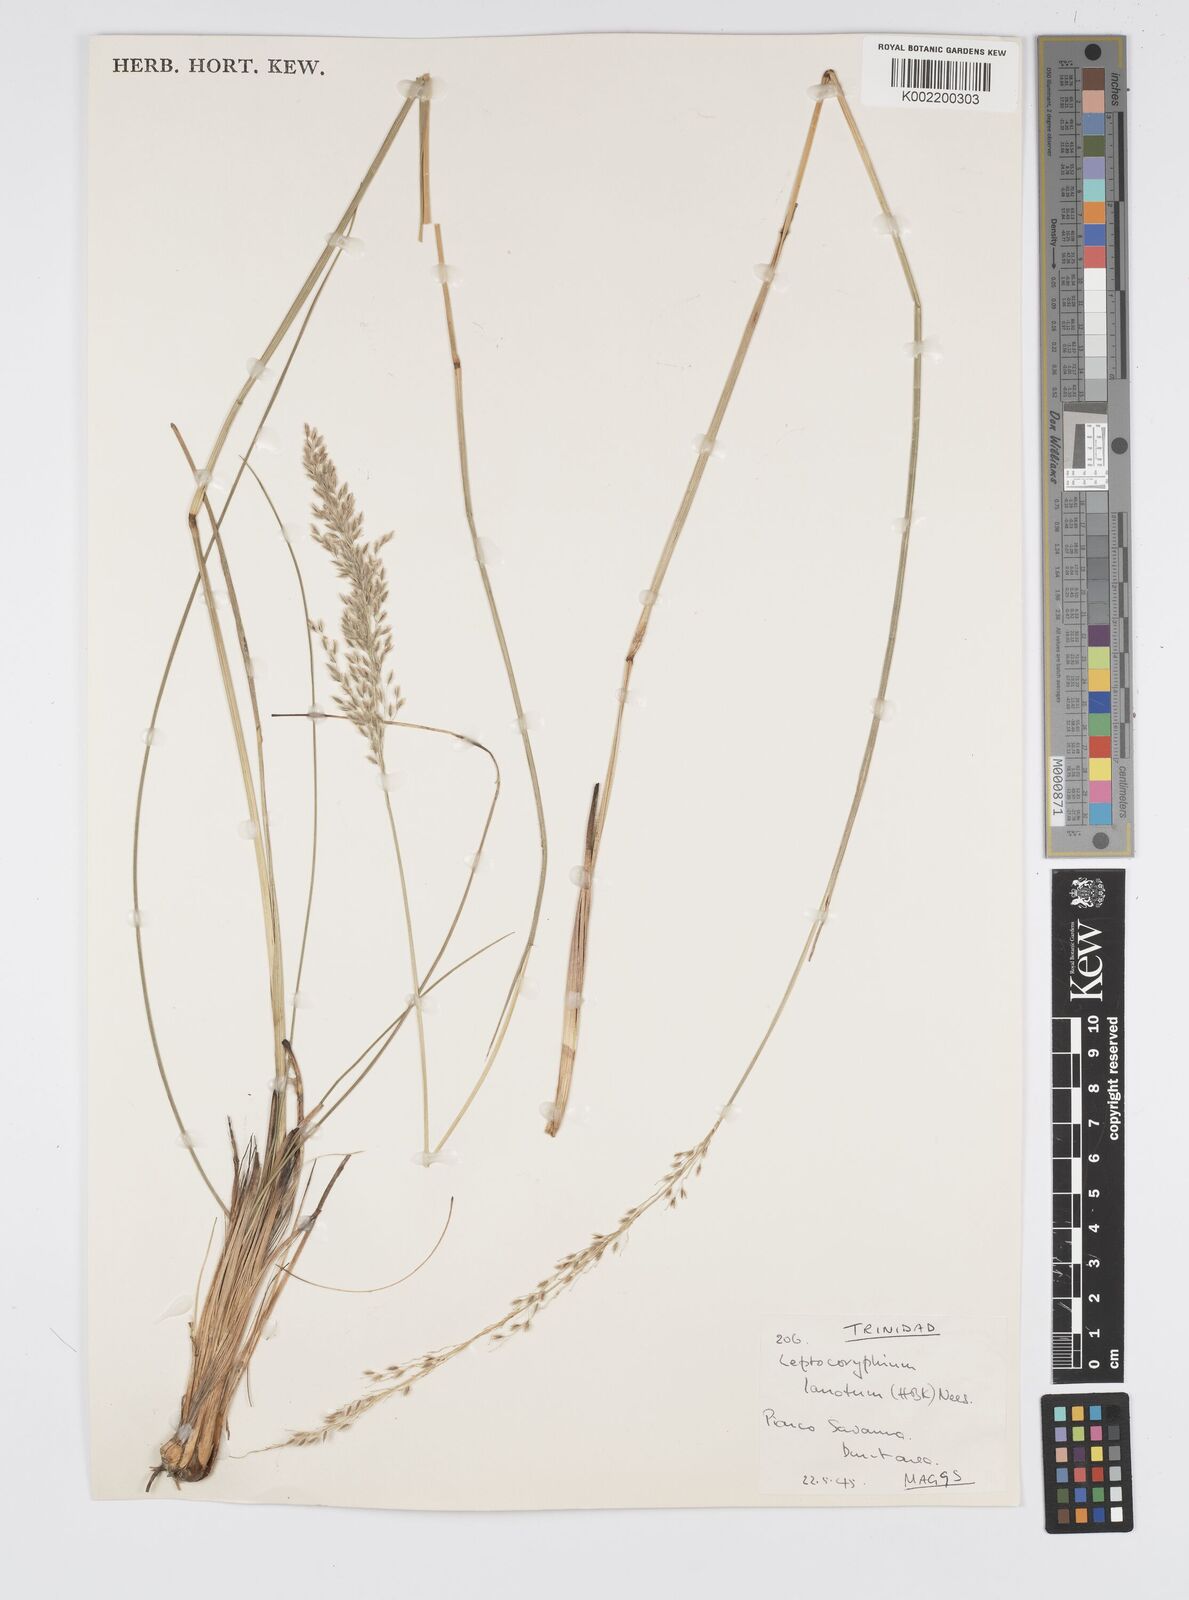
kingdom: Plantae
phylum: Tracheophyta
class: Liliopsida
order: Poales
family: Poaceae
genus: Anthenantia
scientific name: Anthenantia lanata
